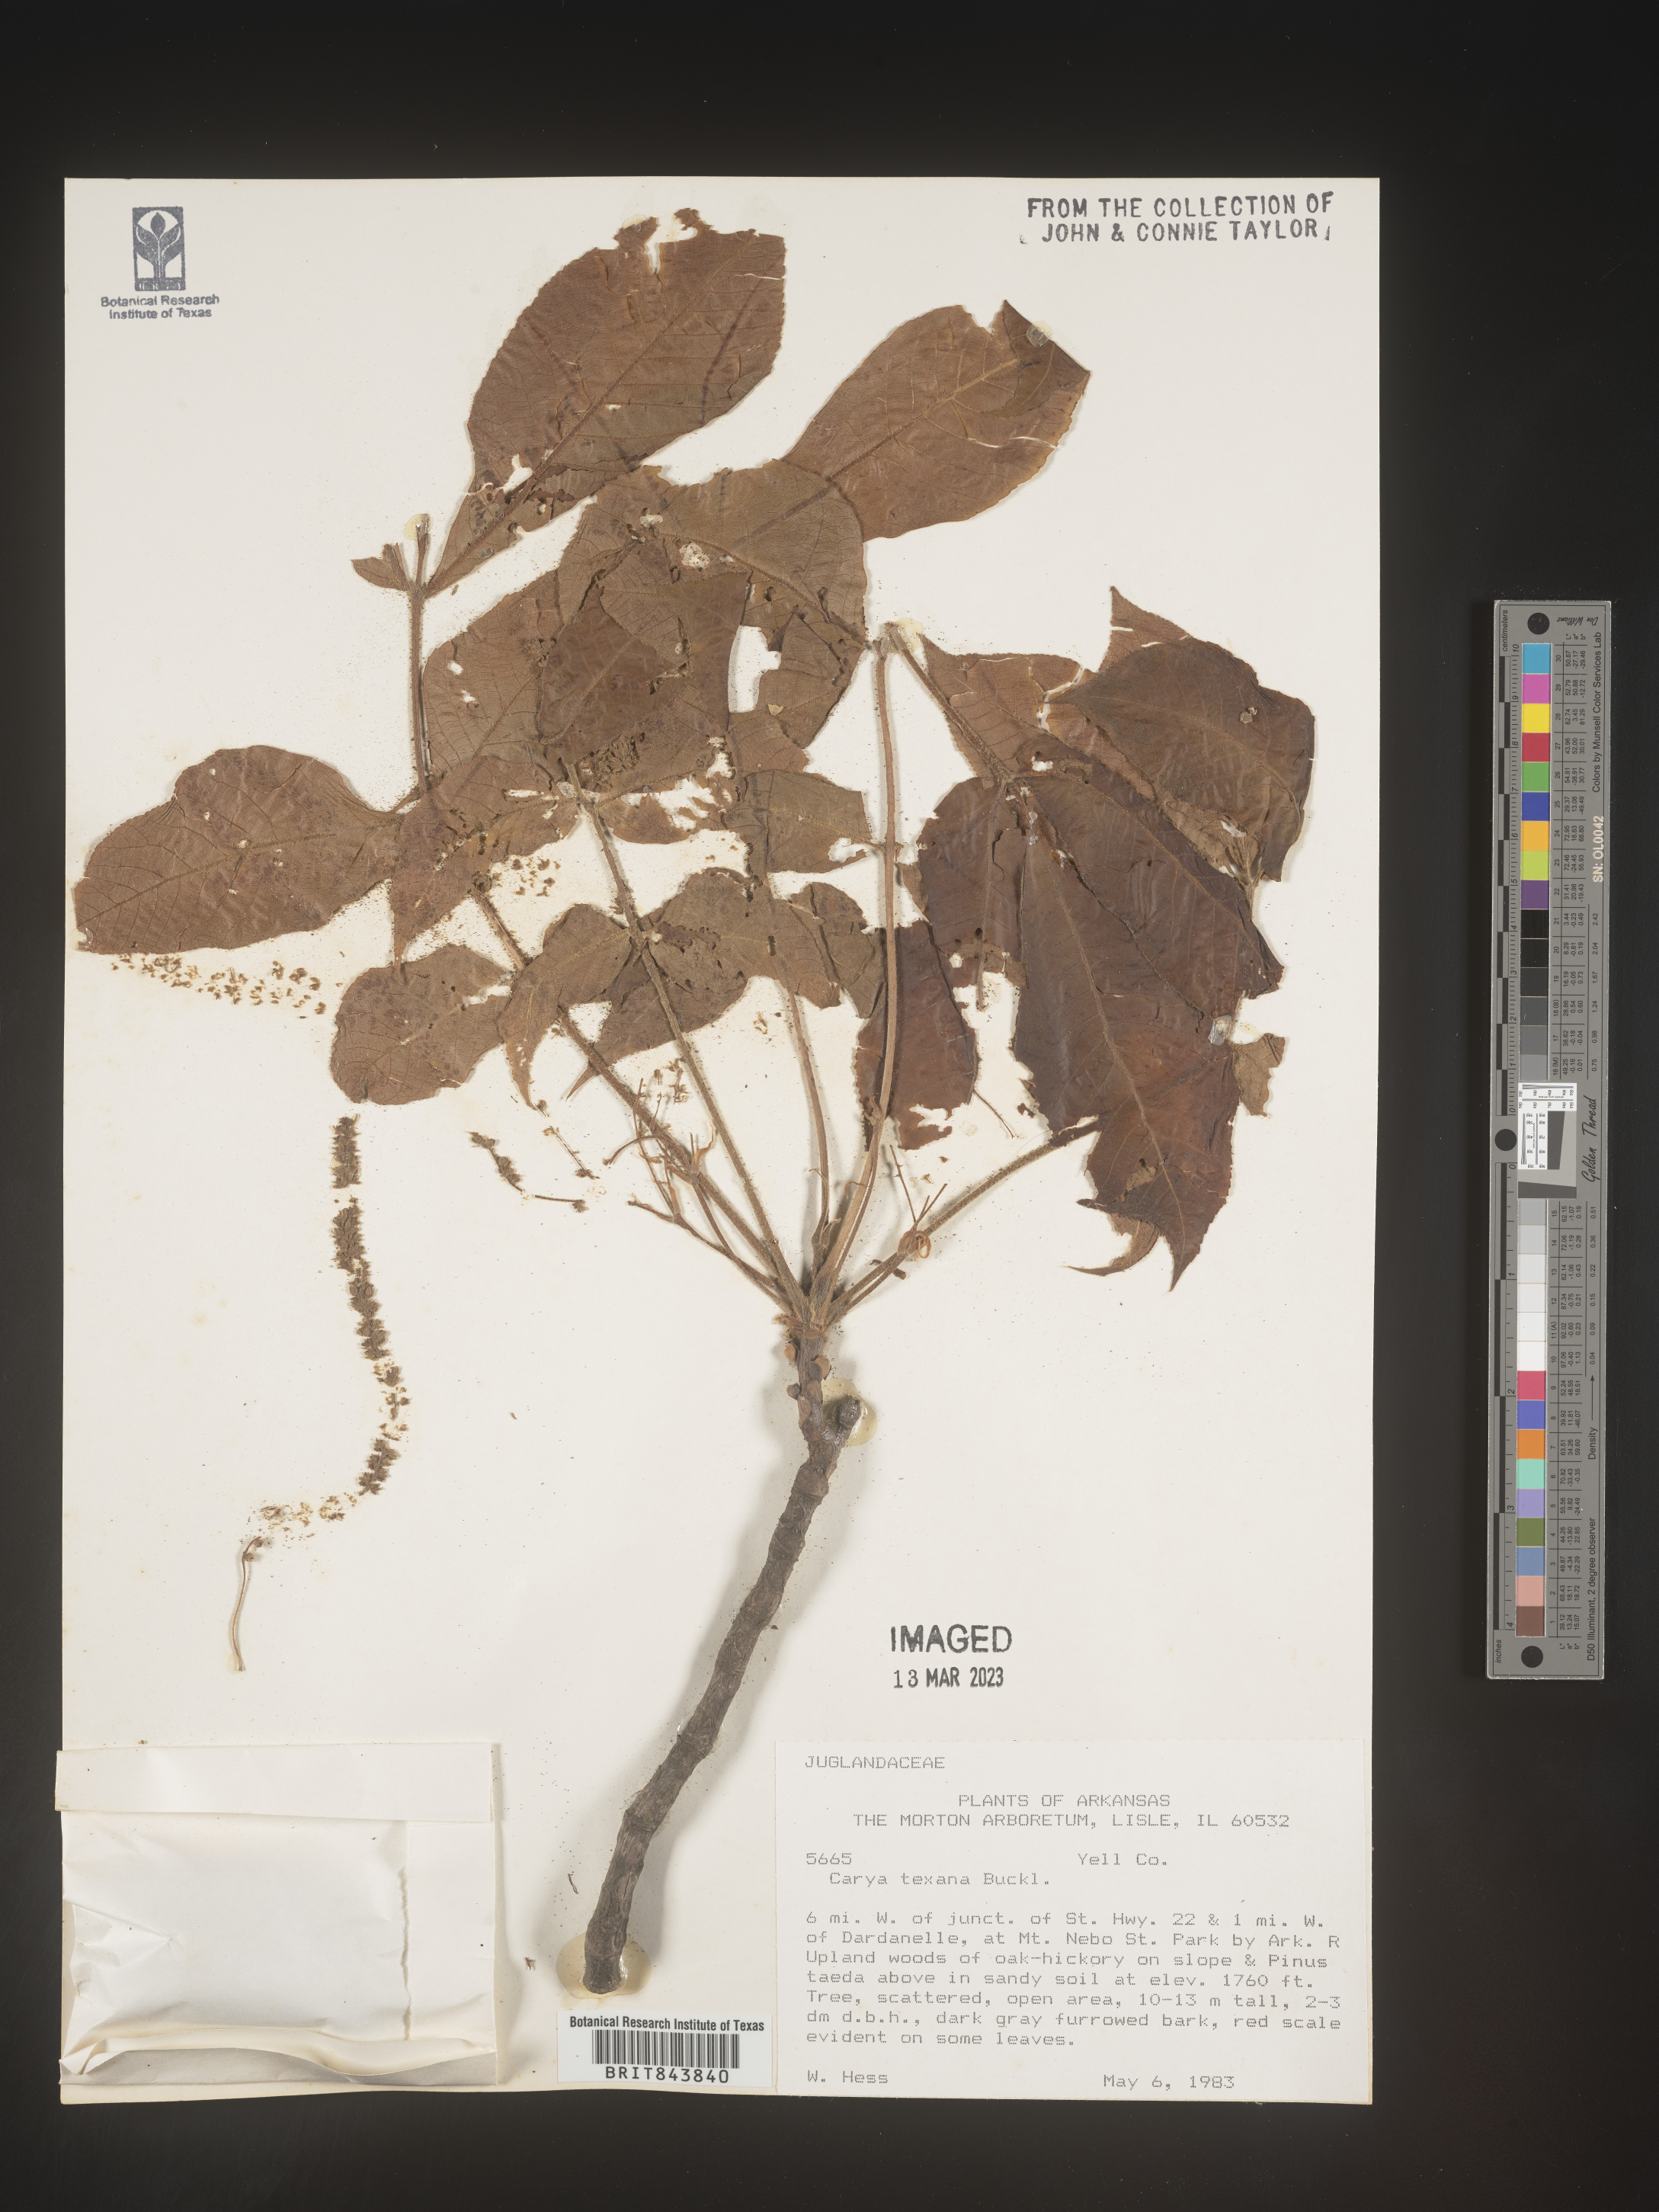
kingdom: Plantae
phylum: Tracheophyta
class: Magnoliopsida
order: Fagales
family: Juglandaceae
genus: Carya
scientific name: Carya texana
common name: Black hickory
